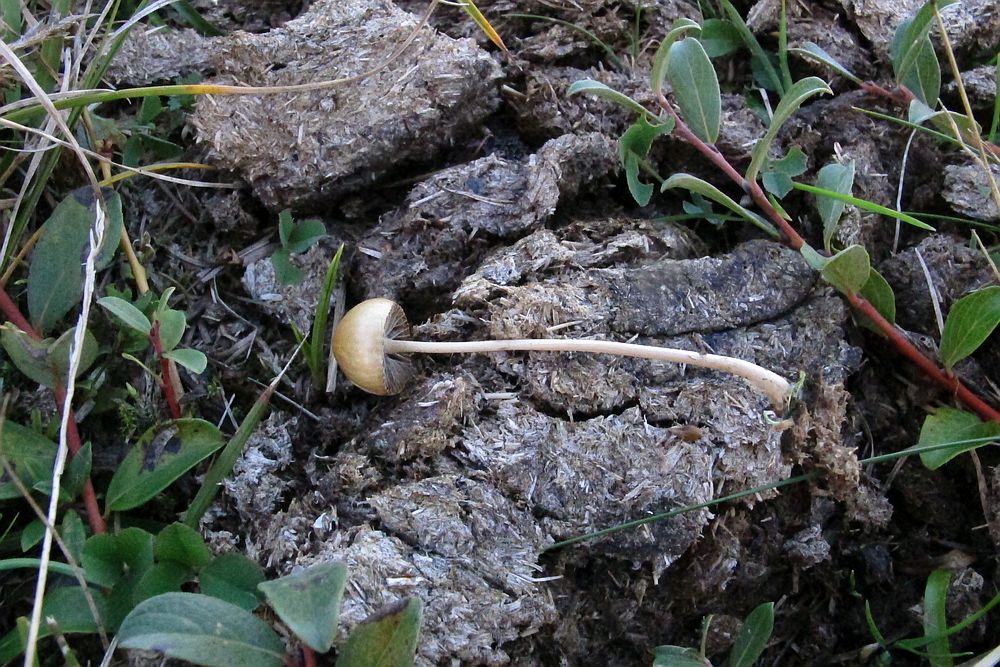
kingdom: Fungi
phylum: Basidiomycota
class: Agaricomycetes
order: Agaricales
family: Strophariaceae
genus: Protostropharia
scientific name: Protostropharia semiglobata
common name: halvkugleformet bredblad
